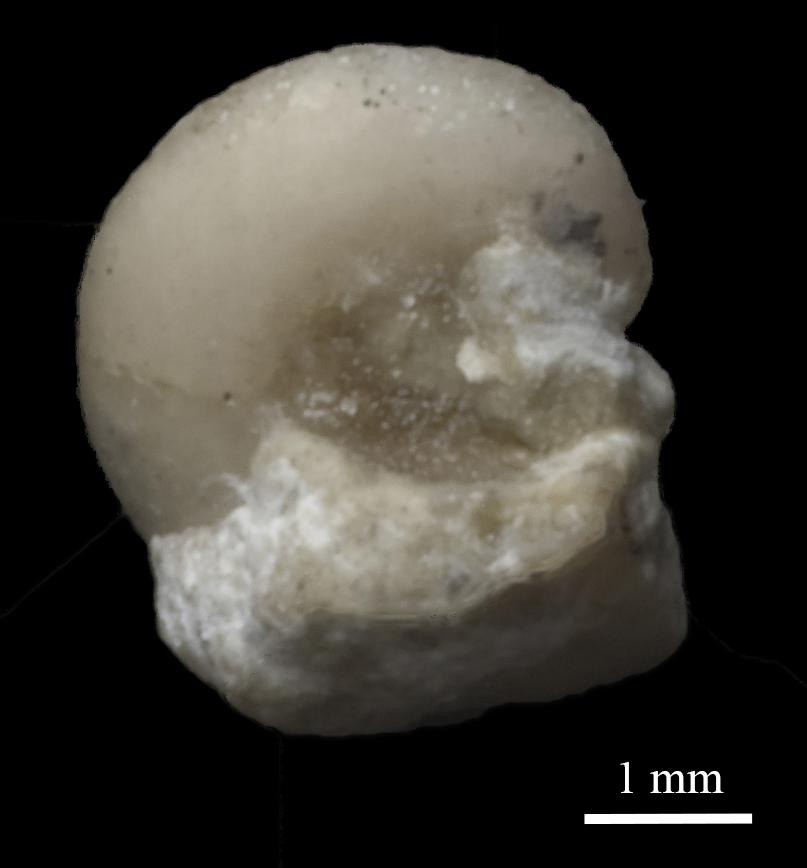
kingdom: Animalia
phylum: Mollusca
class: Gastropoda
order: Pleurotomariida
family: Eotomariidae
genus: Liospira
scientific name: Liospira Pleurotomaria rossica
